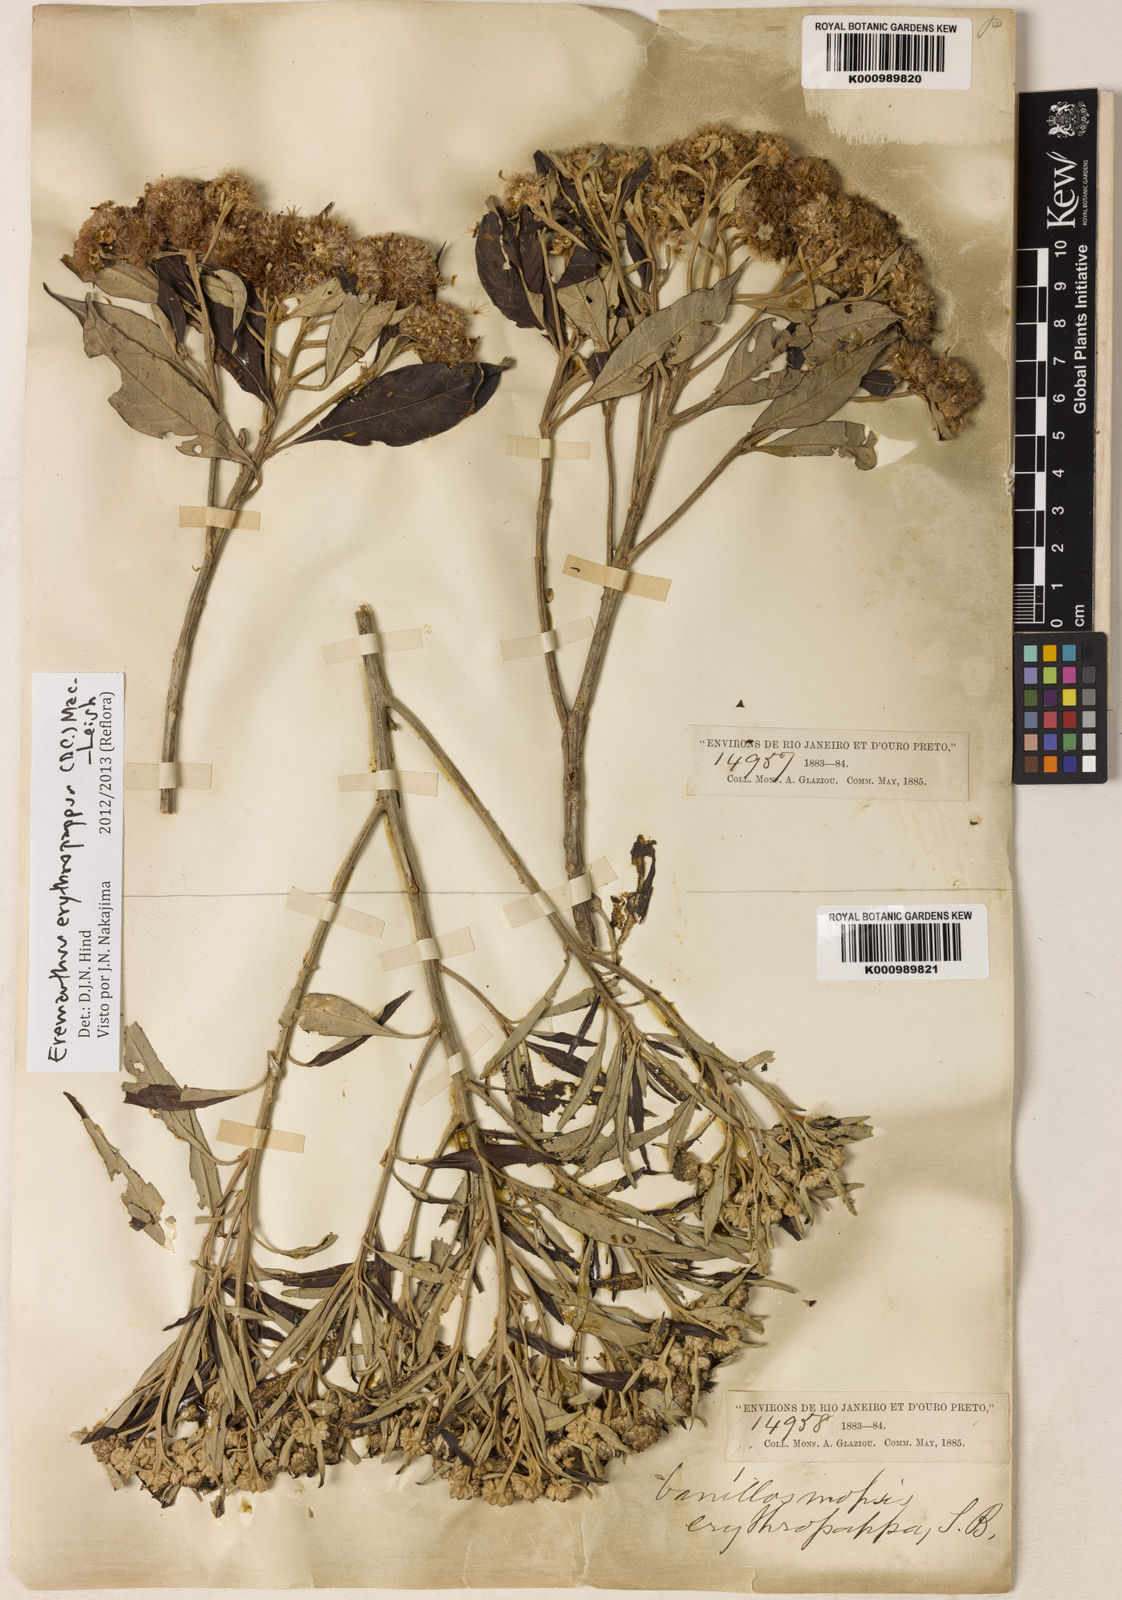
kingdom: Plantae
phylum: Tracheophyta
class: Magnoliopsida
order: Asterales
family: Asteraceae
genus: Eremanthus
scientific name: Eremanthus erythropappus
